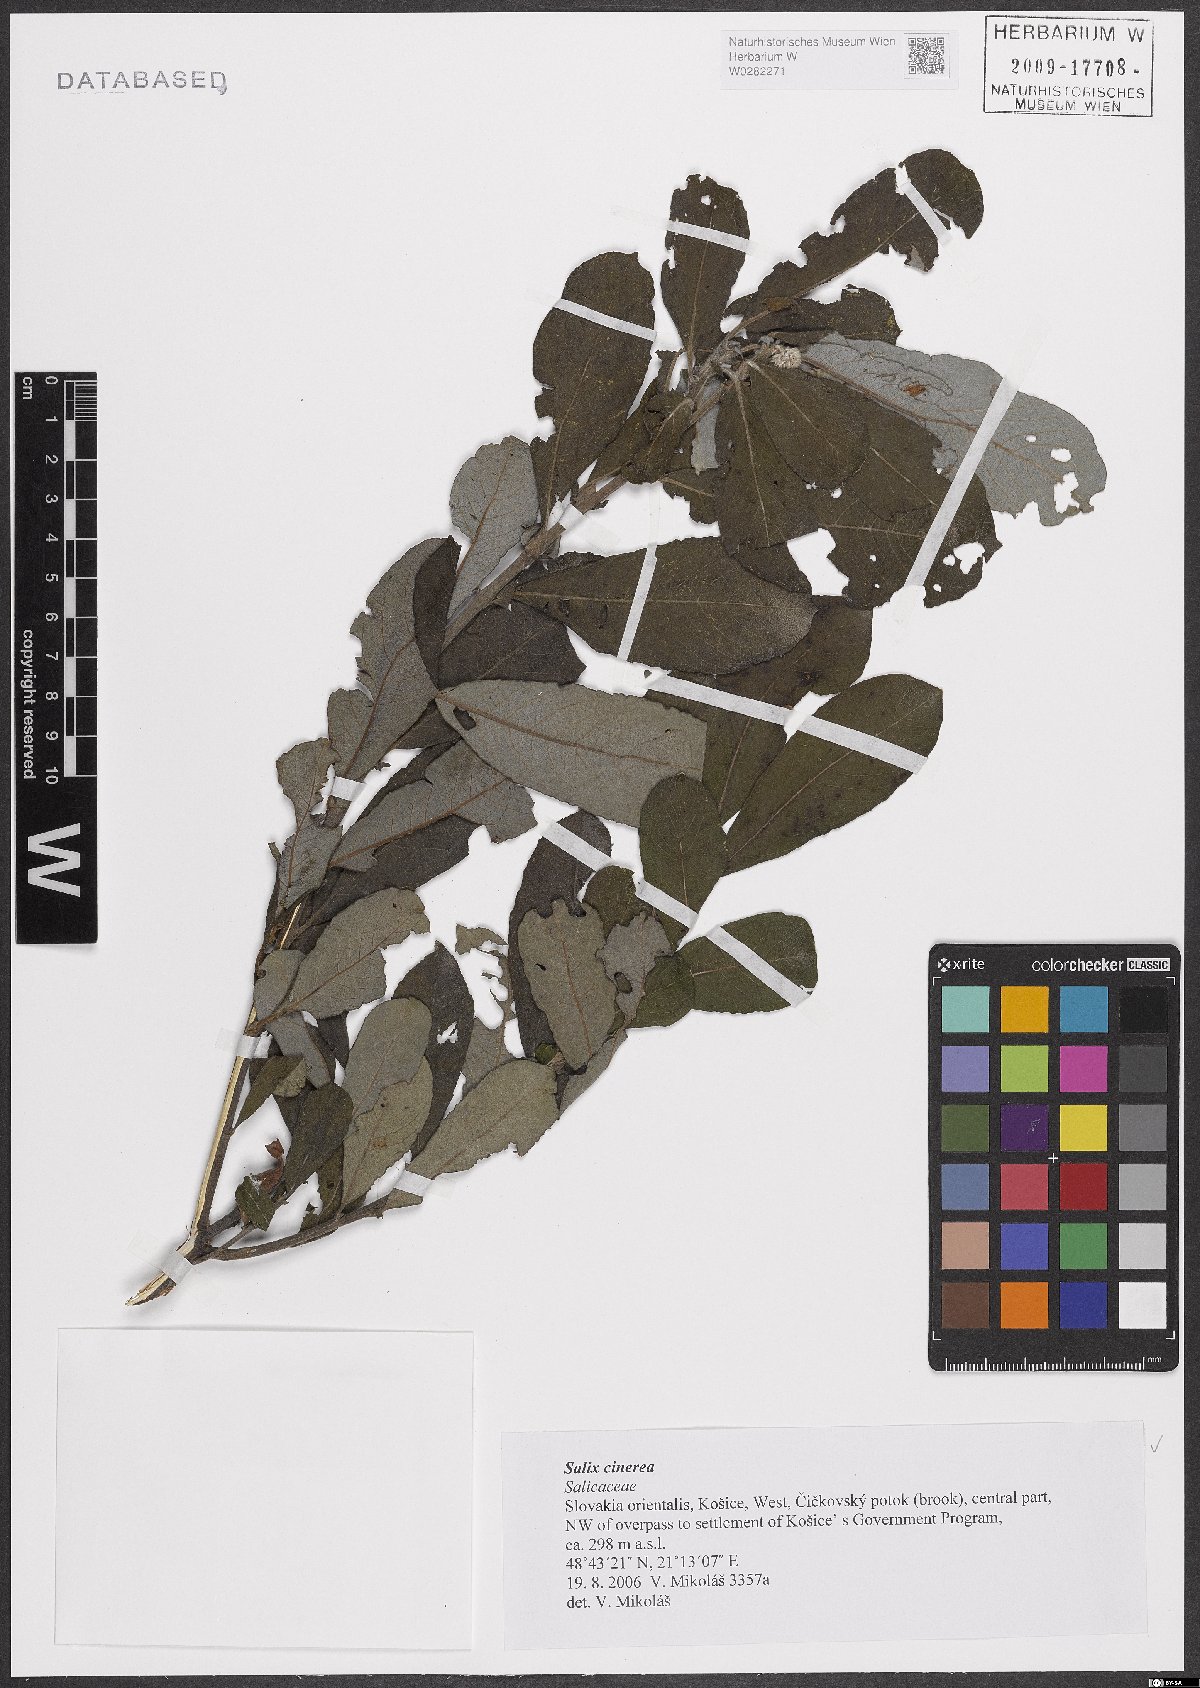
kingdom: Plantae
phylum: Tracheophyta
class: Magnoliopsida
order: Malpighiales
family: Salicaceae
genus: Salix
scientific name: Salix cinerea
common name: Common sallow
